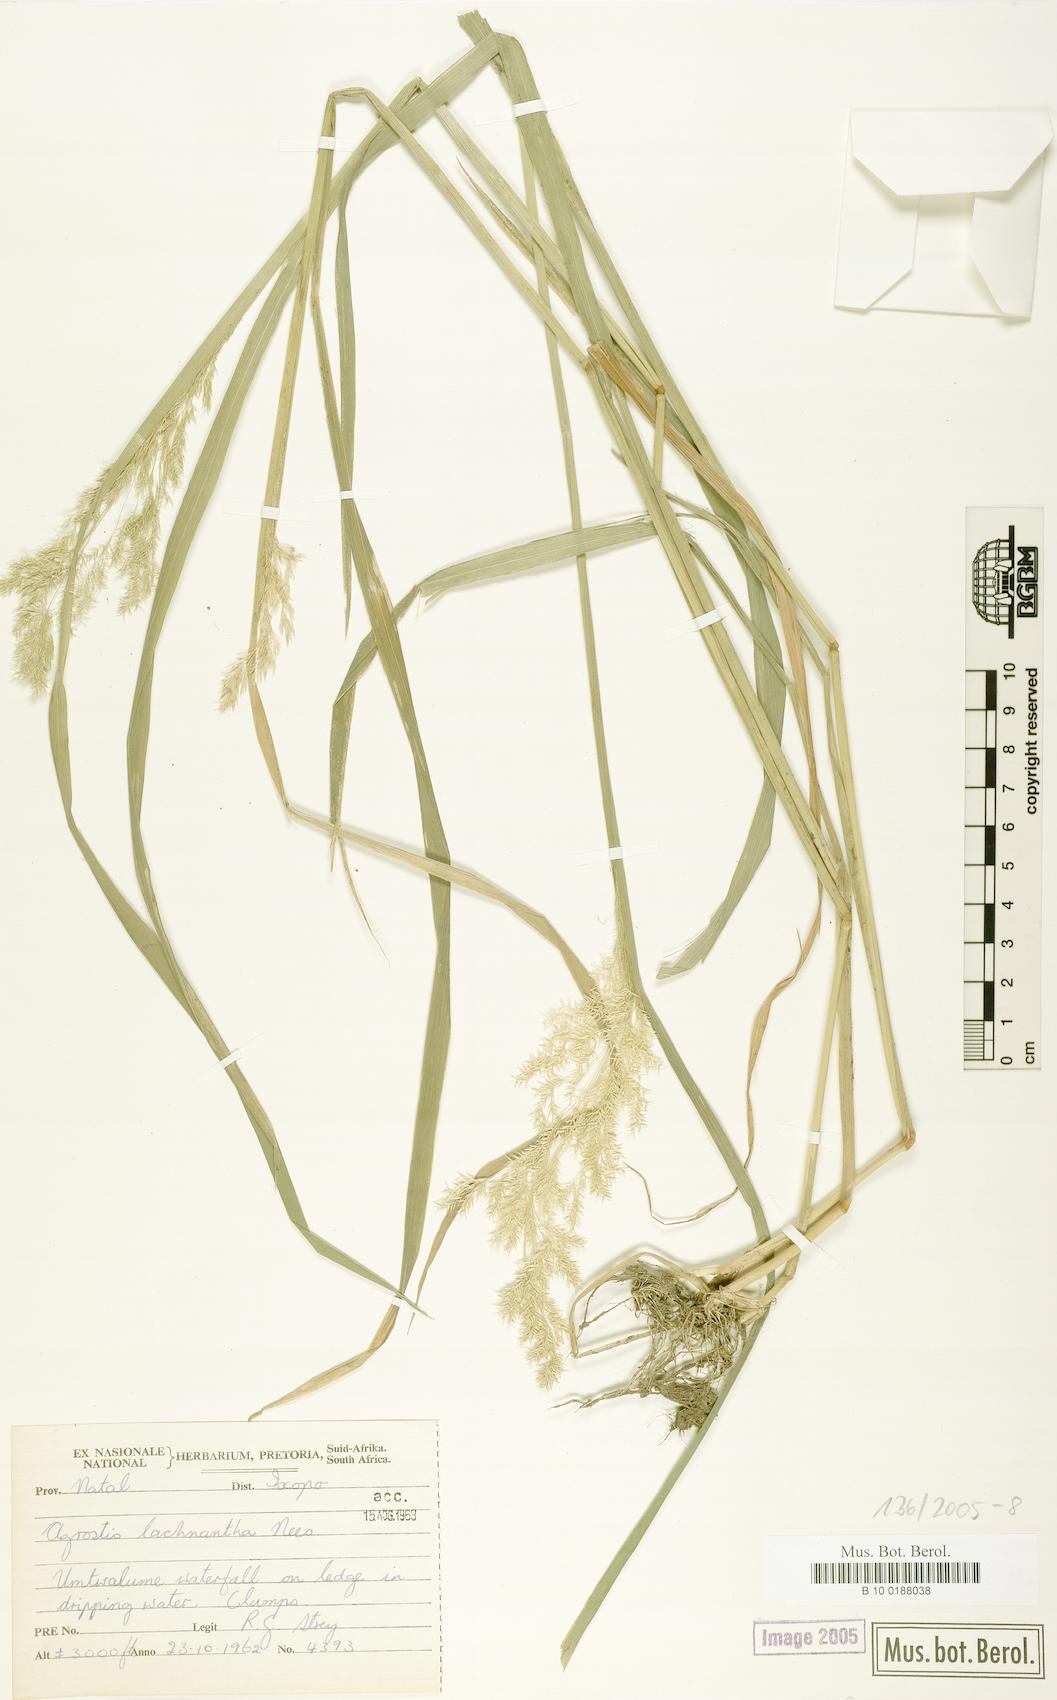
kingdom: Plantae
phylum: Tracheophyta
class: Liliopsida
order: Poales
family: Poaceae
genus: Lachnagrostis
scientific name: Lachnagrostis lachnantha
